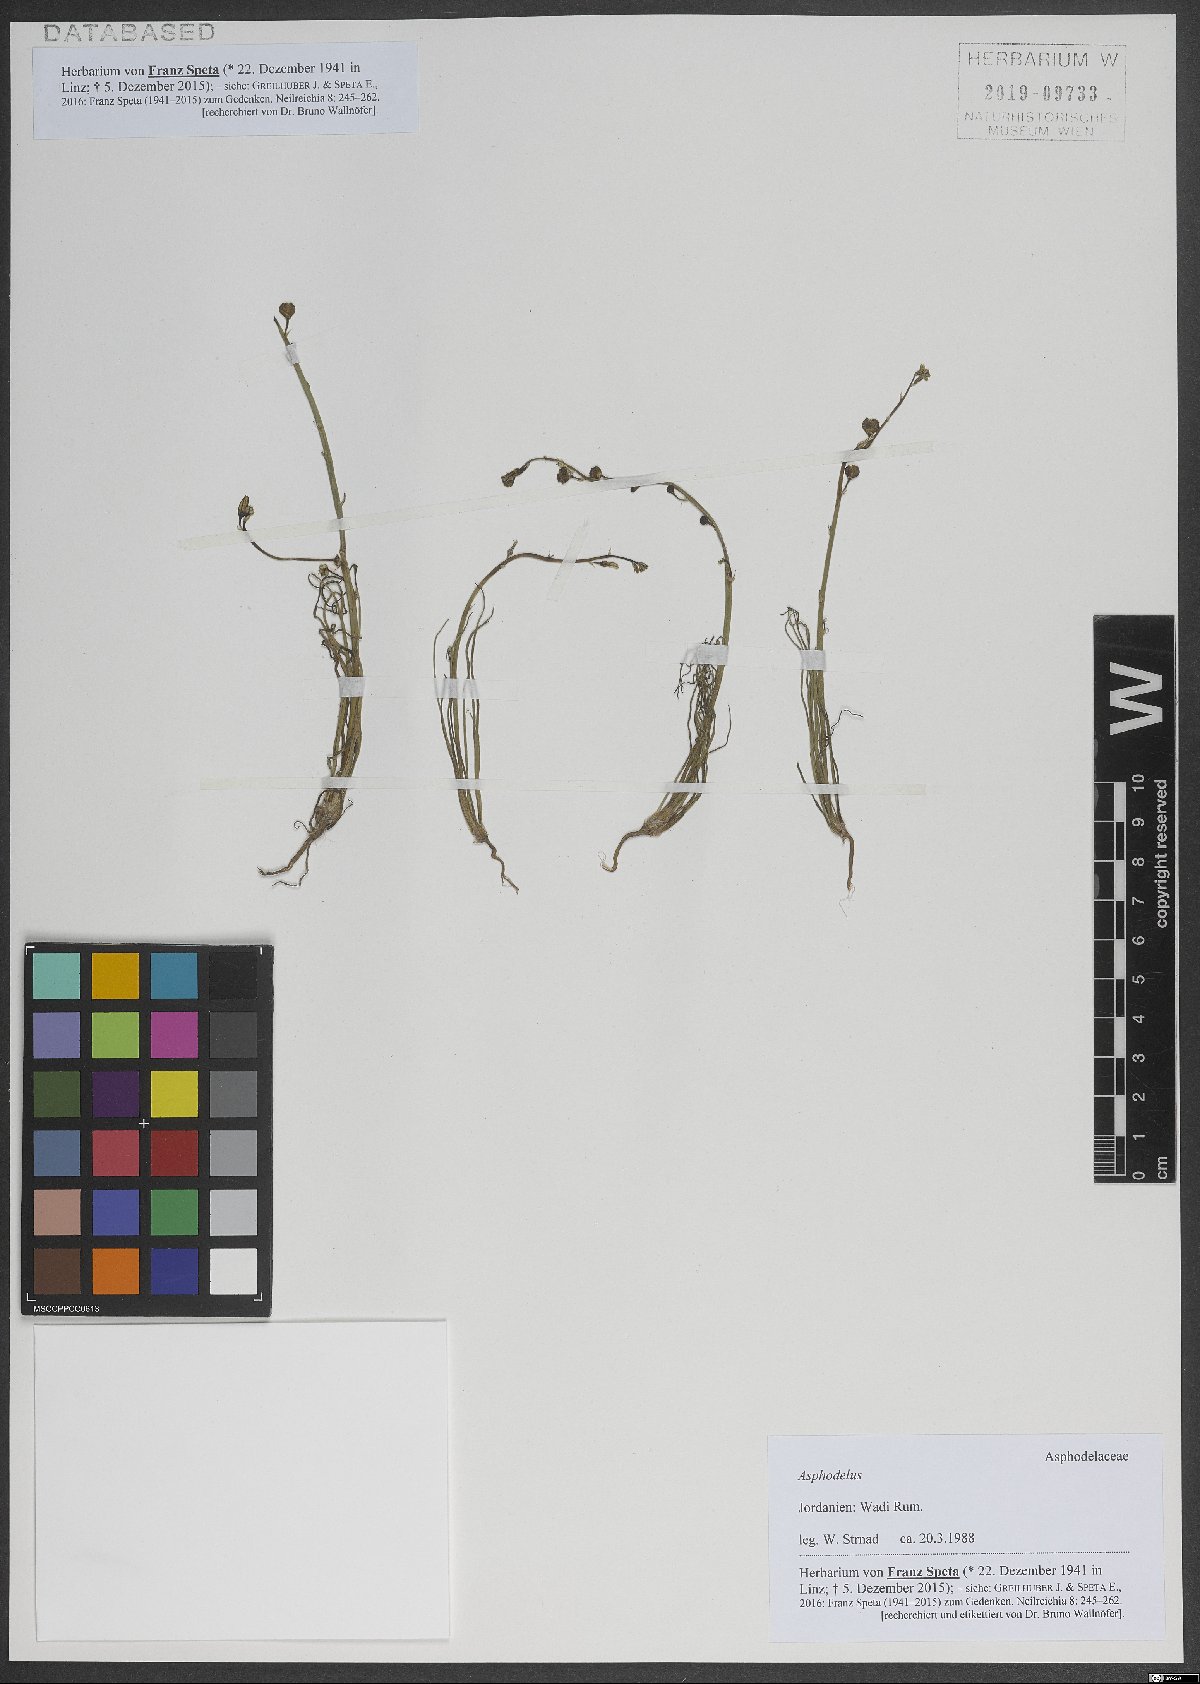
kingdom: Plantae
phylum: Tracheophyta
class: Liliopsida
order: Asparagales
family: Asphodelaceae
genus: Asphodelus
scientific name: Asphodelus
